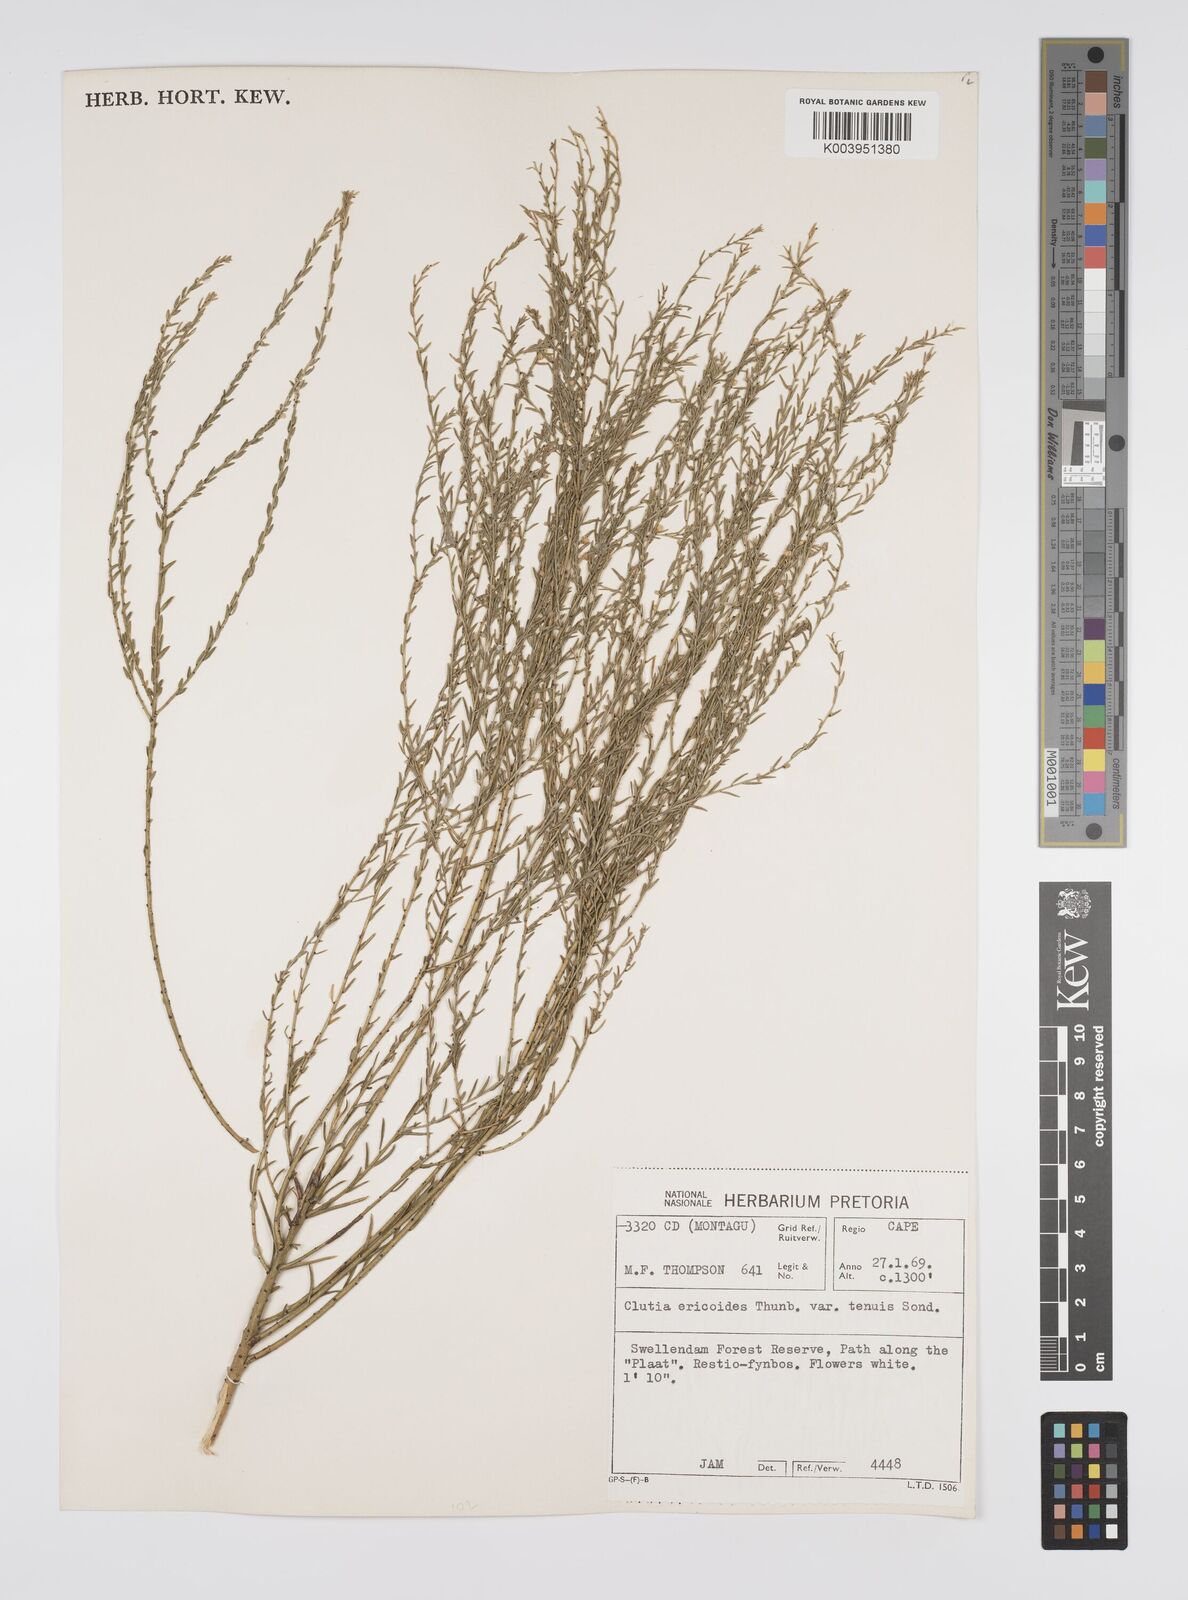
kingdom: Plantae
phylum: Tracheophyta
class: Magnoliopsida
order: Malpighiales
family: Peraceae
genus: Clutia
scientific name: Clutia
